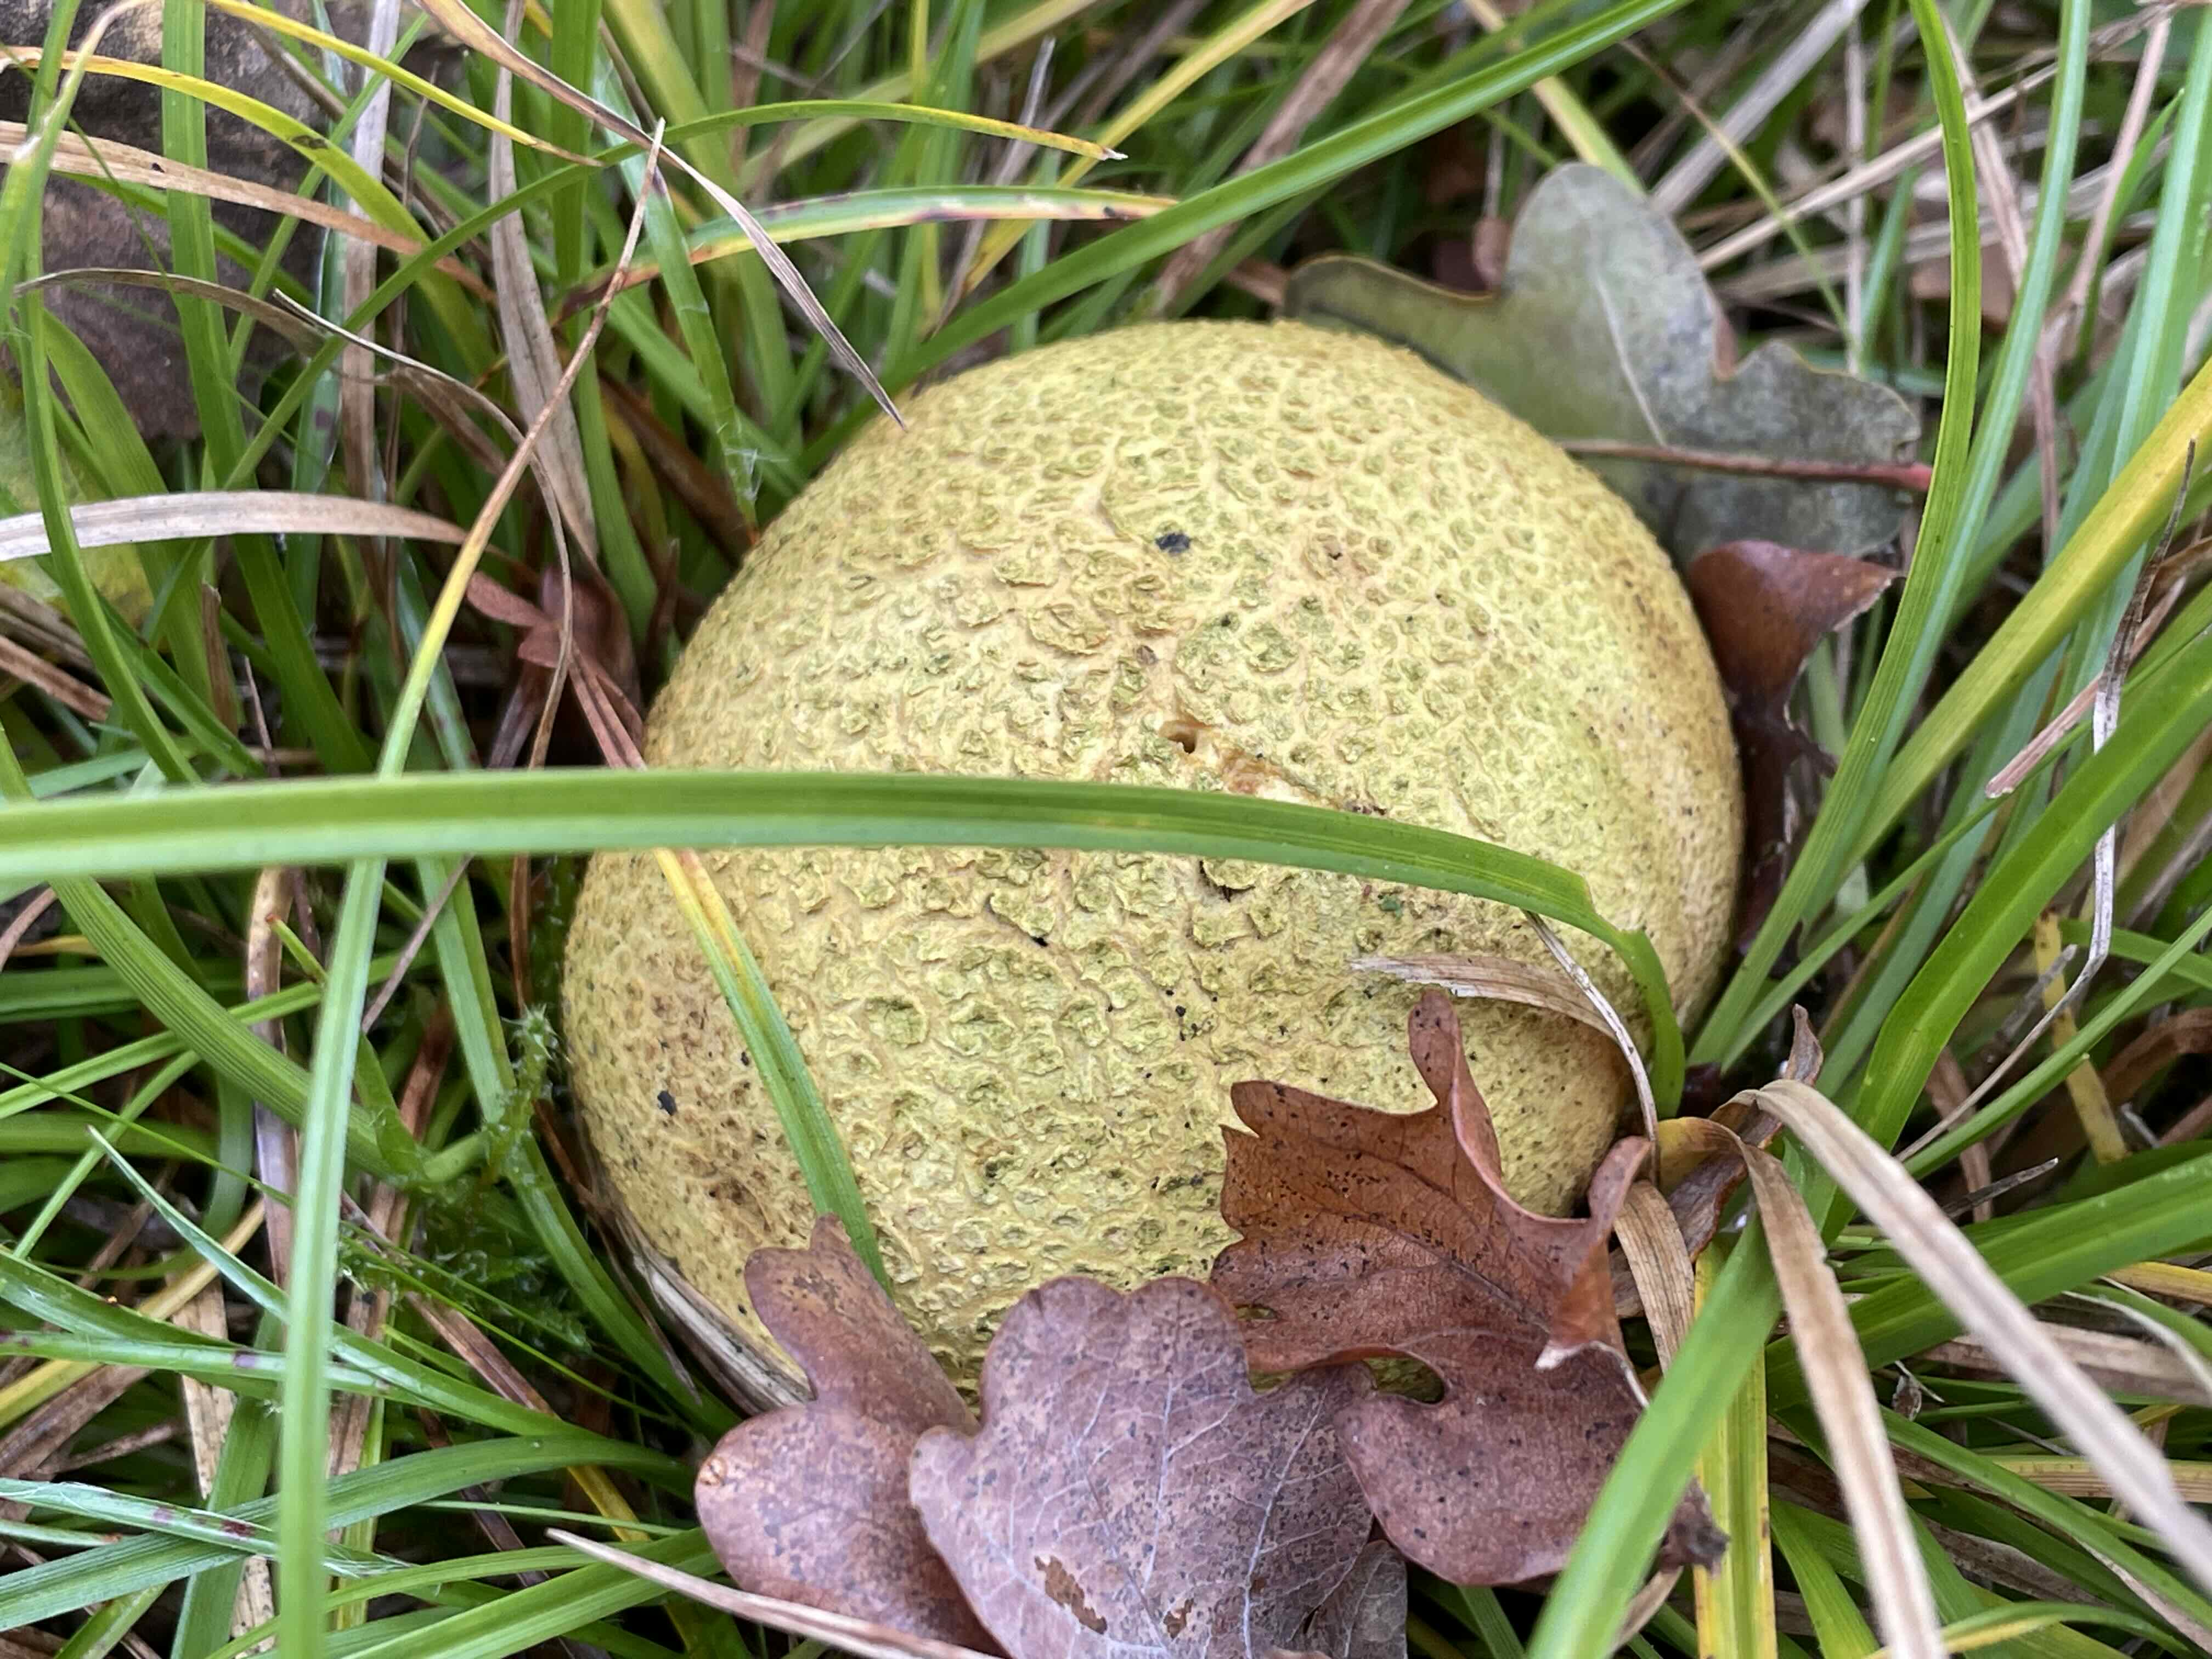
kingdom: Fungi
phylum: Basidiomycota
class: Agaricomycetes
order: Boletales
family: Sclerodermataceae
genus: Scleroderma
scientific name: Scleroderma citrinum
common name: almindelig bruskbold
